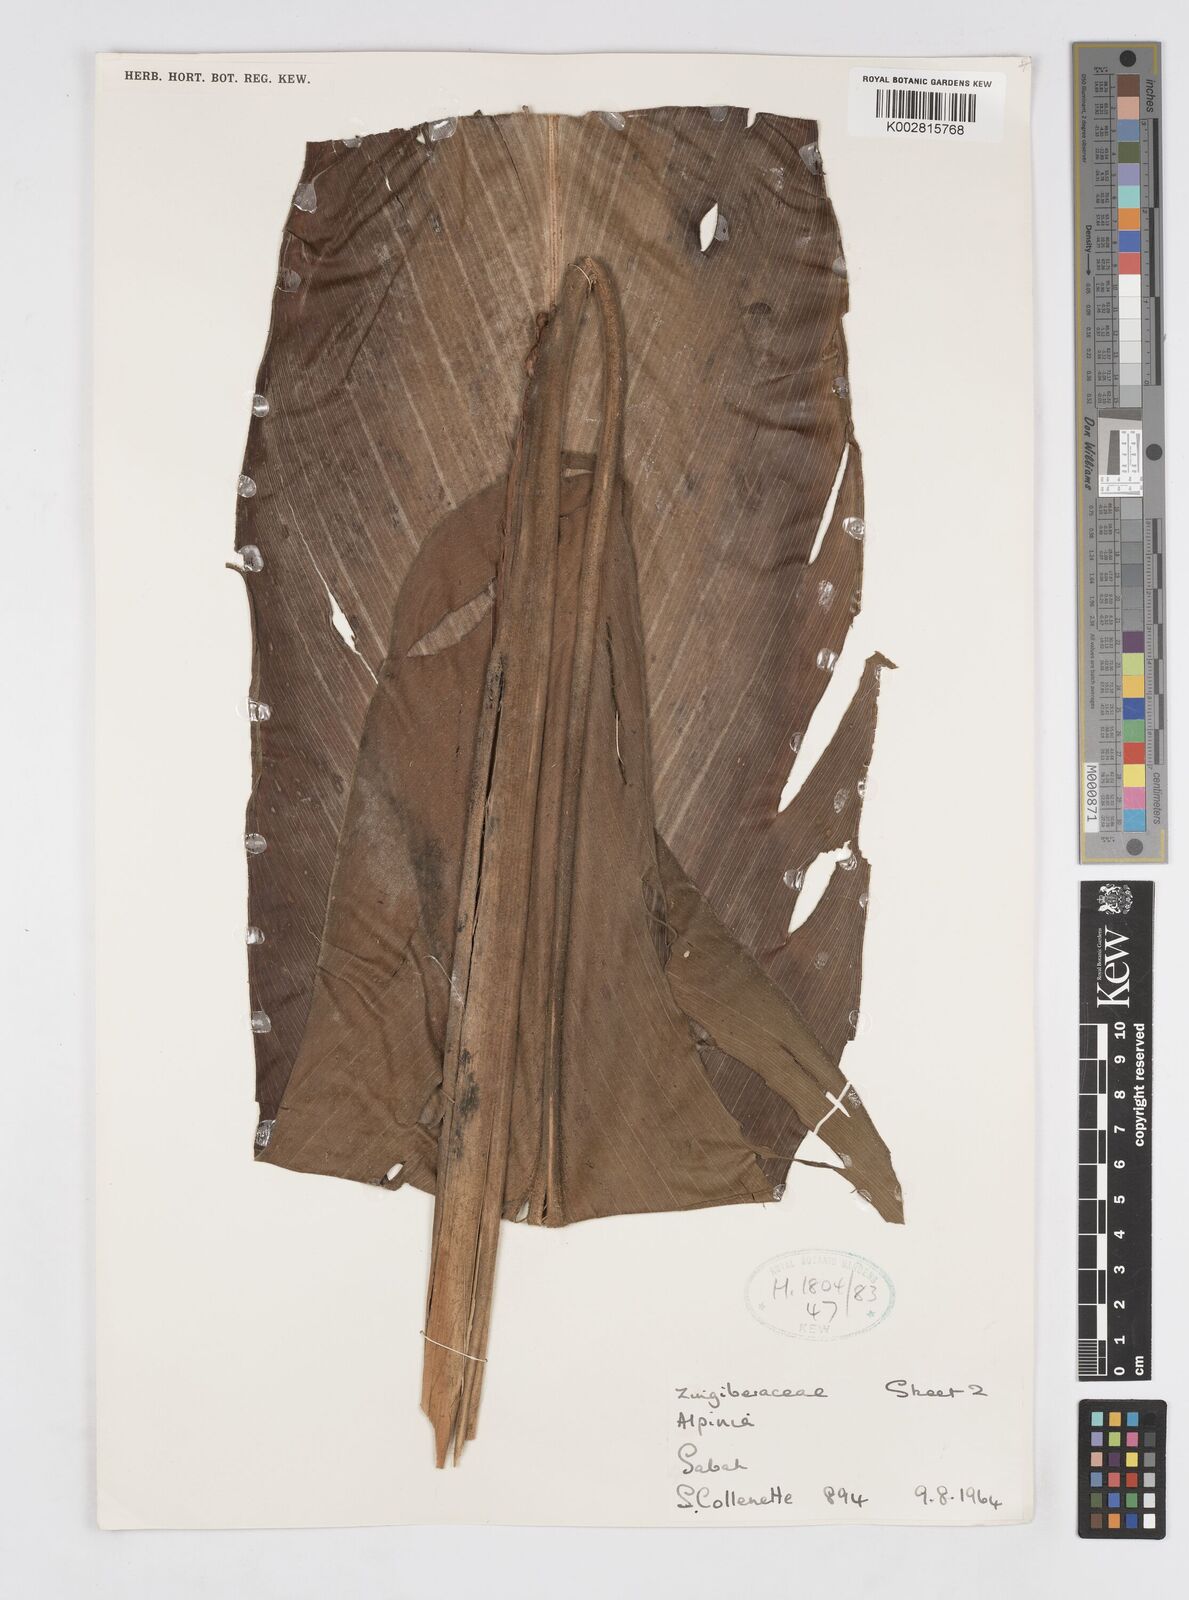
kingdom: Plantae
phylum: Tracheophyta
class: Liliopsida
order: Zingiberales
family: Zingiberaceae
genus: Alpinia
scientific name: Alpinia havilandii
